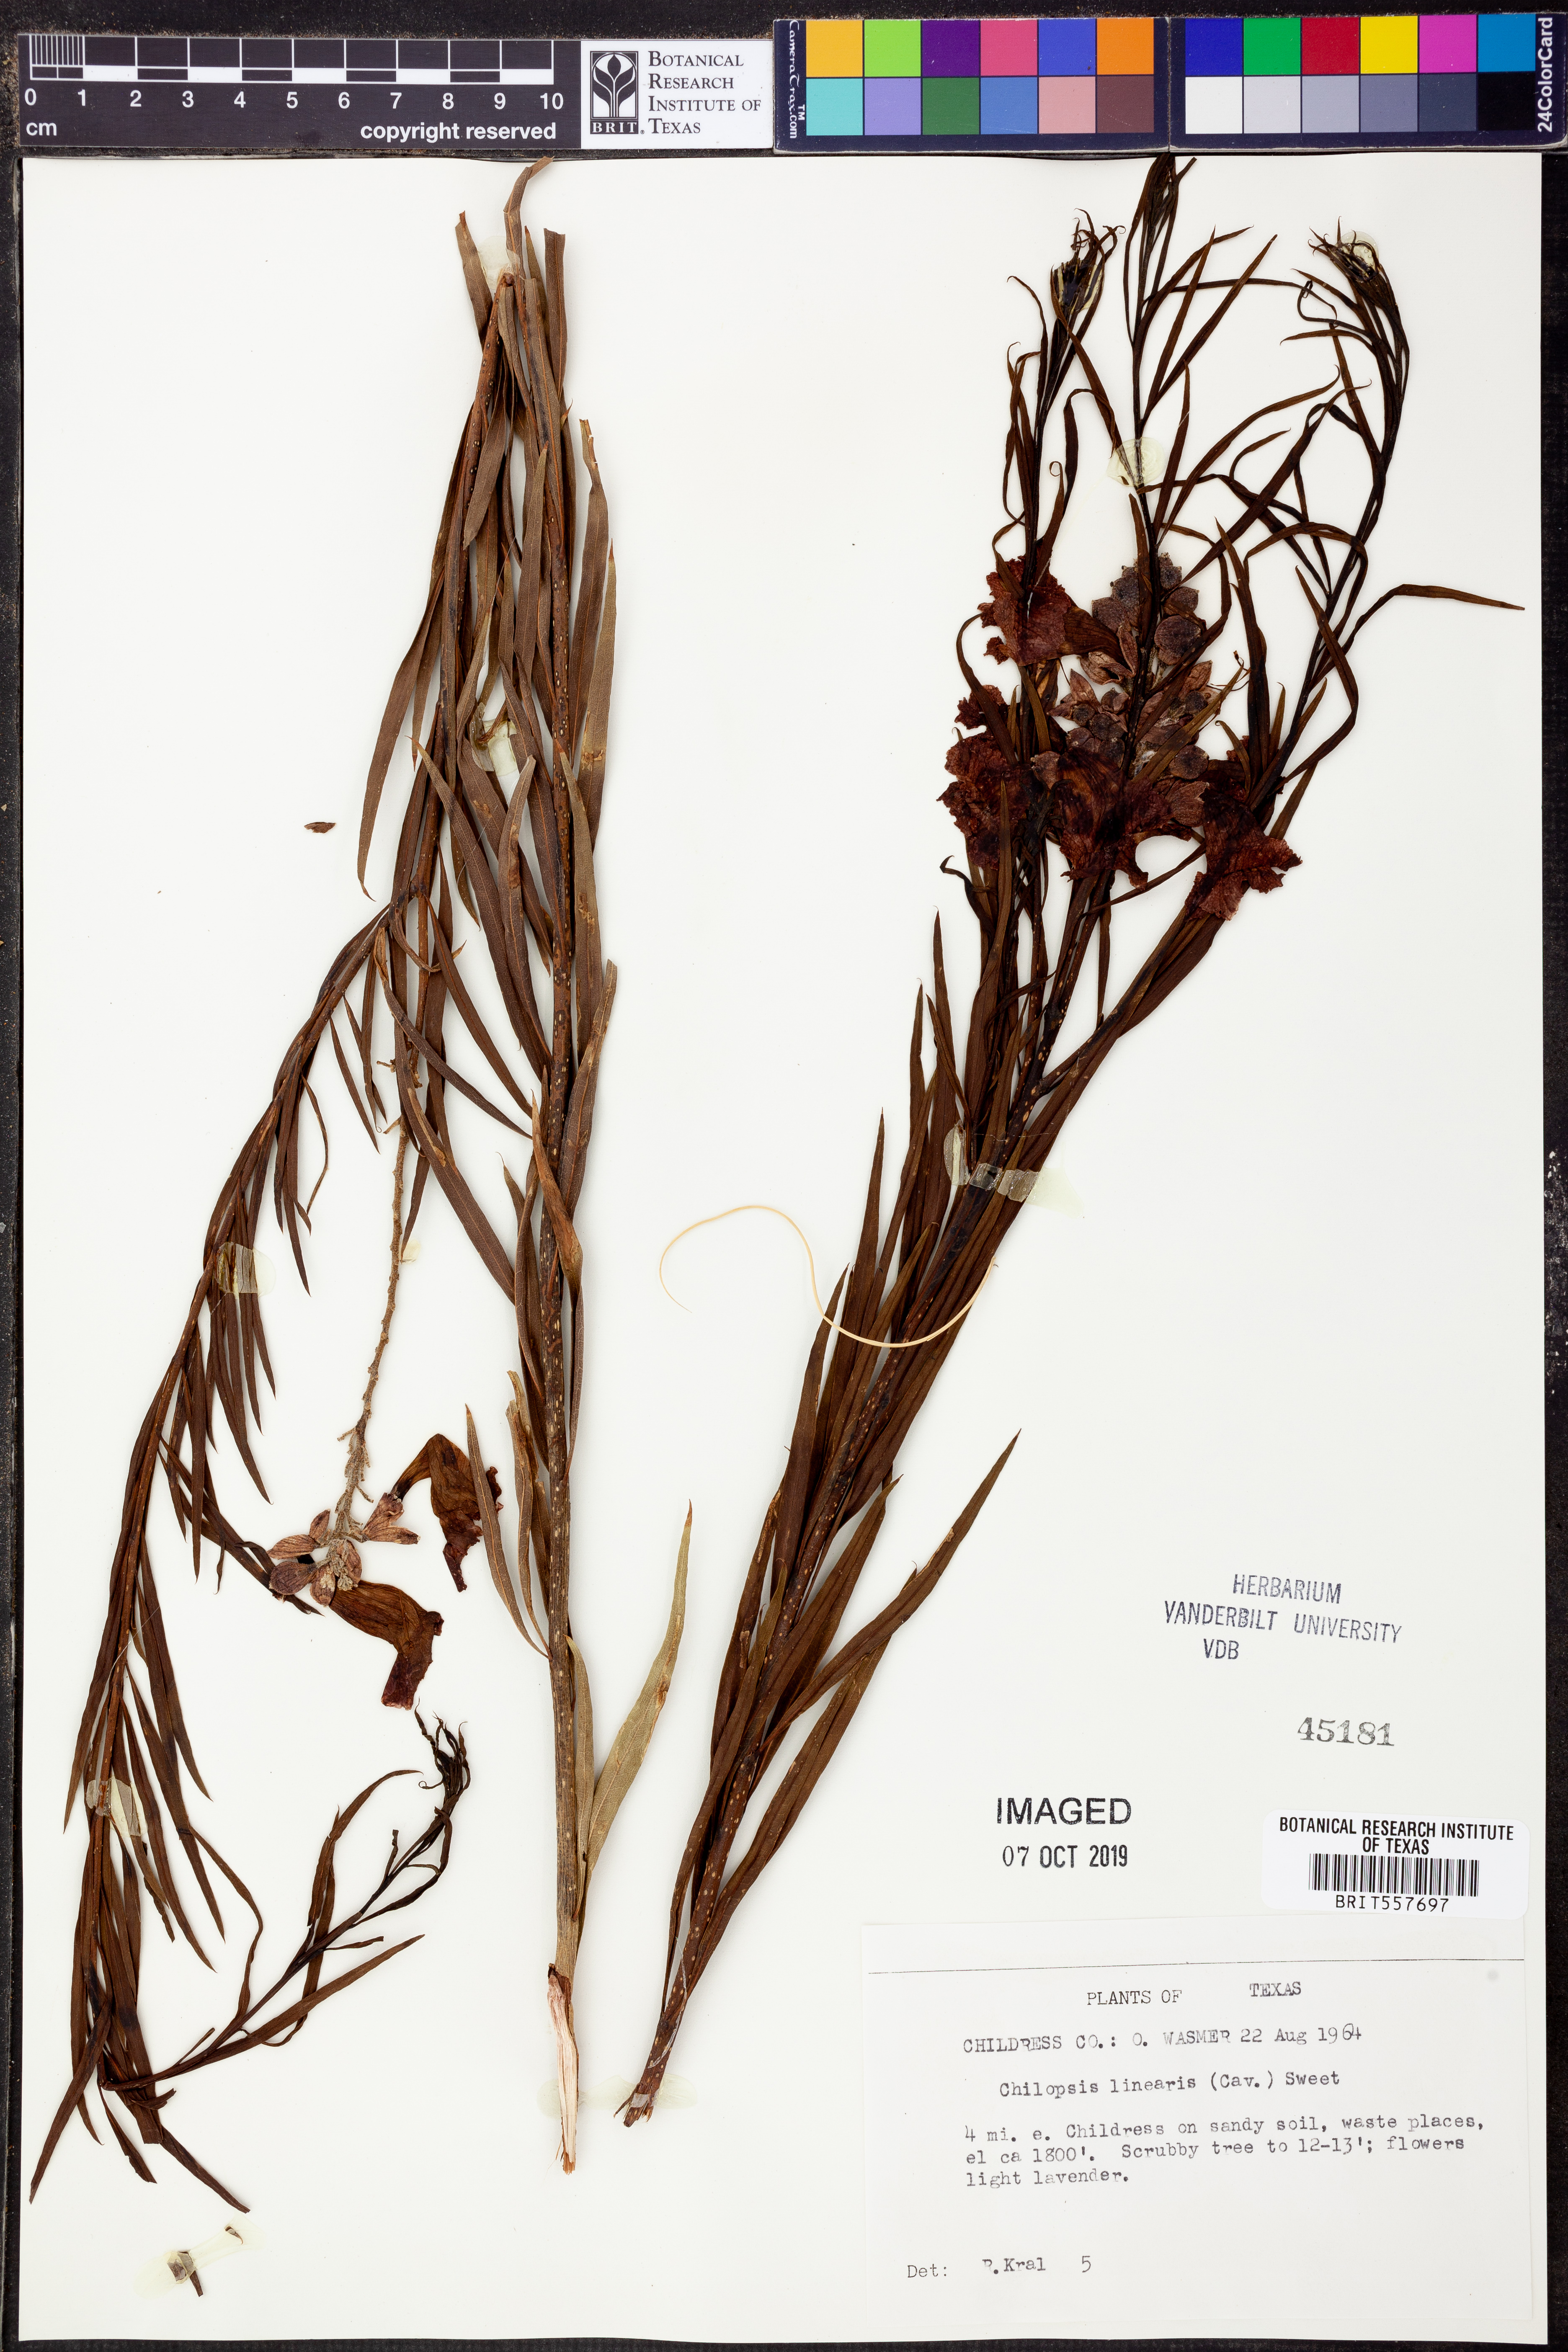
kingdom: Plantae
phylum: Tracheophyta
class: Magnoliopsida
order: Lamiales
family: Bignoniaceae
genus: Chilopsis
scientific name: Chilopsis linearis
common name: Desert-willow
